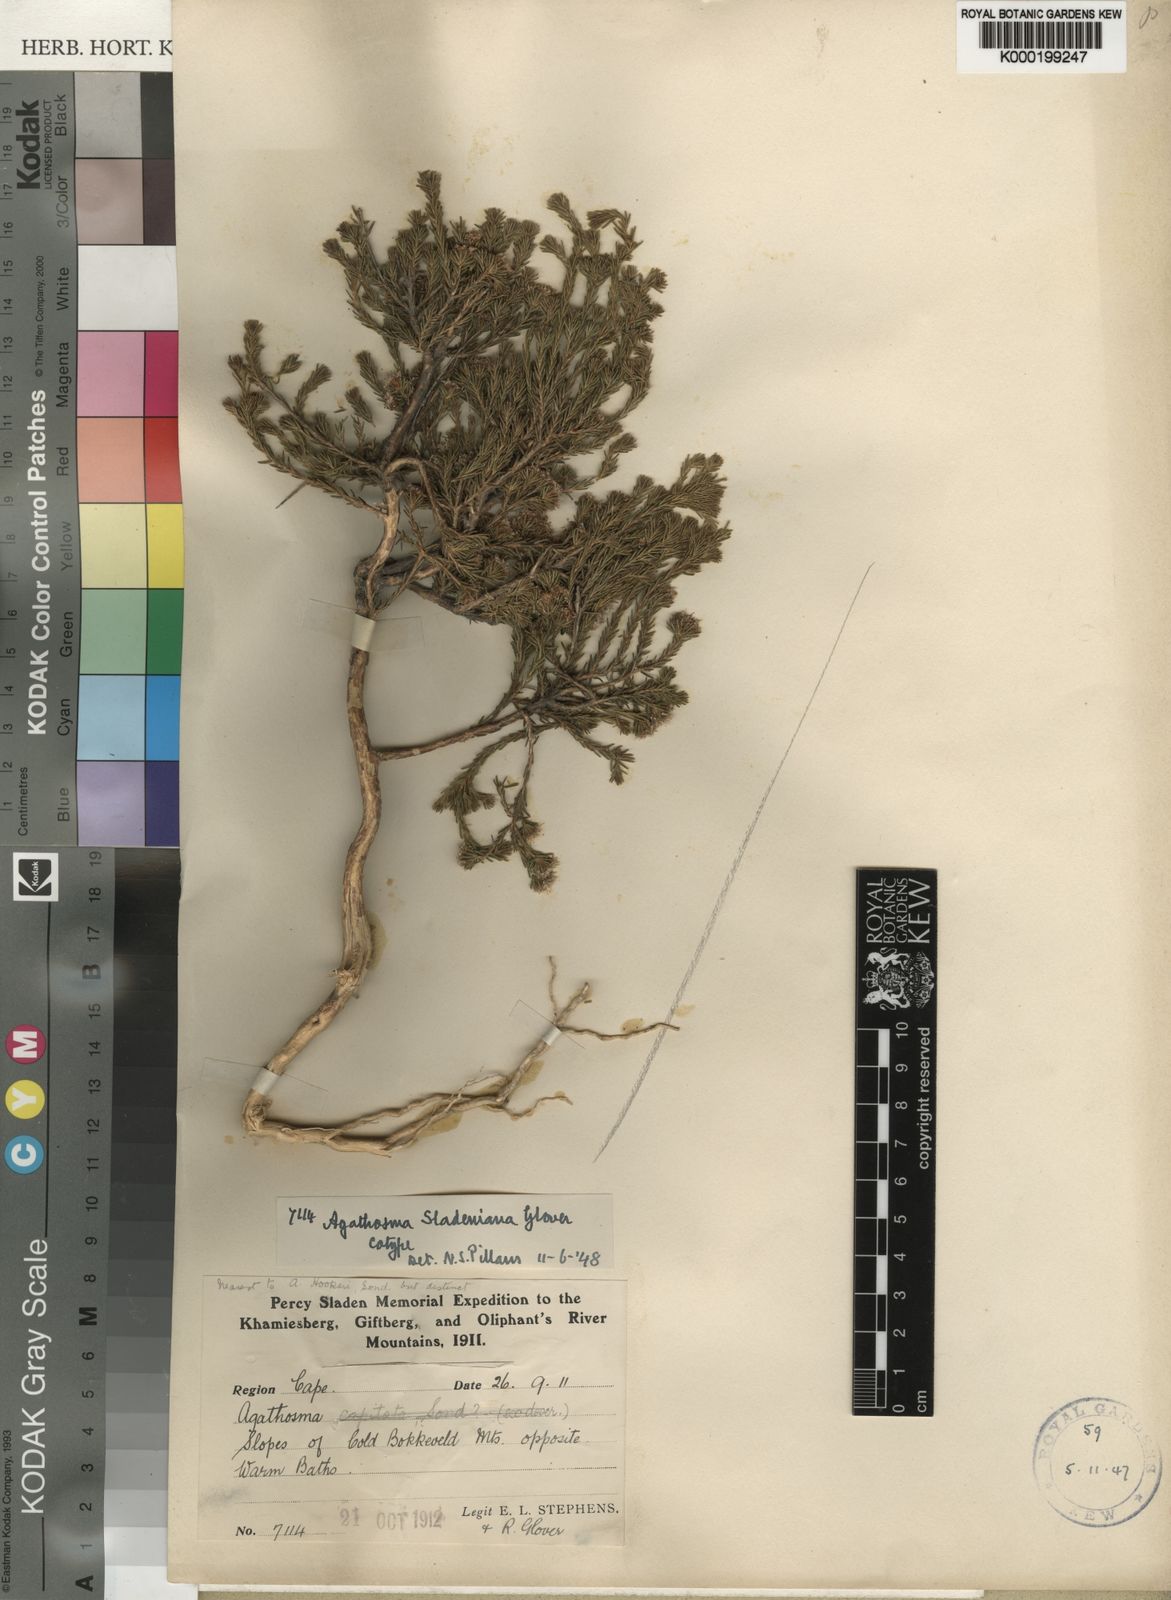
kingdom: Plantae
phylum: Tracheophyta
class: Magnoliopsida
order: Sapindales
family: Rutaceae
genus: Agathosma
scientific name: Agathosma sladeniana
